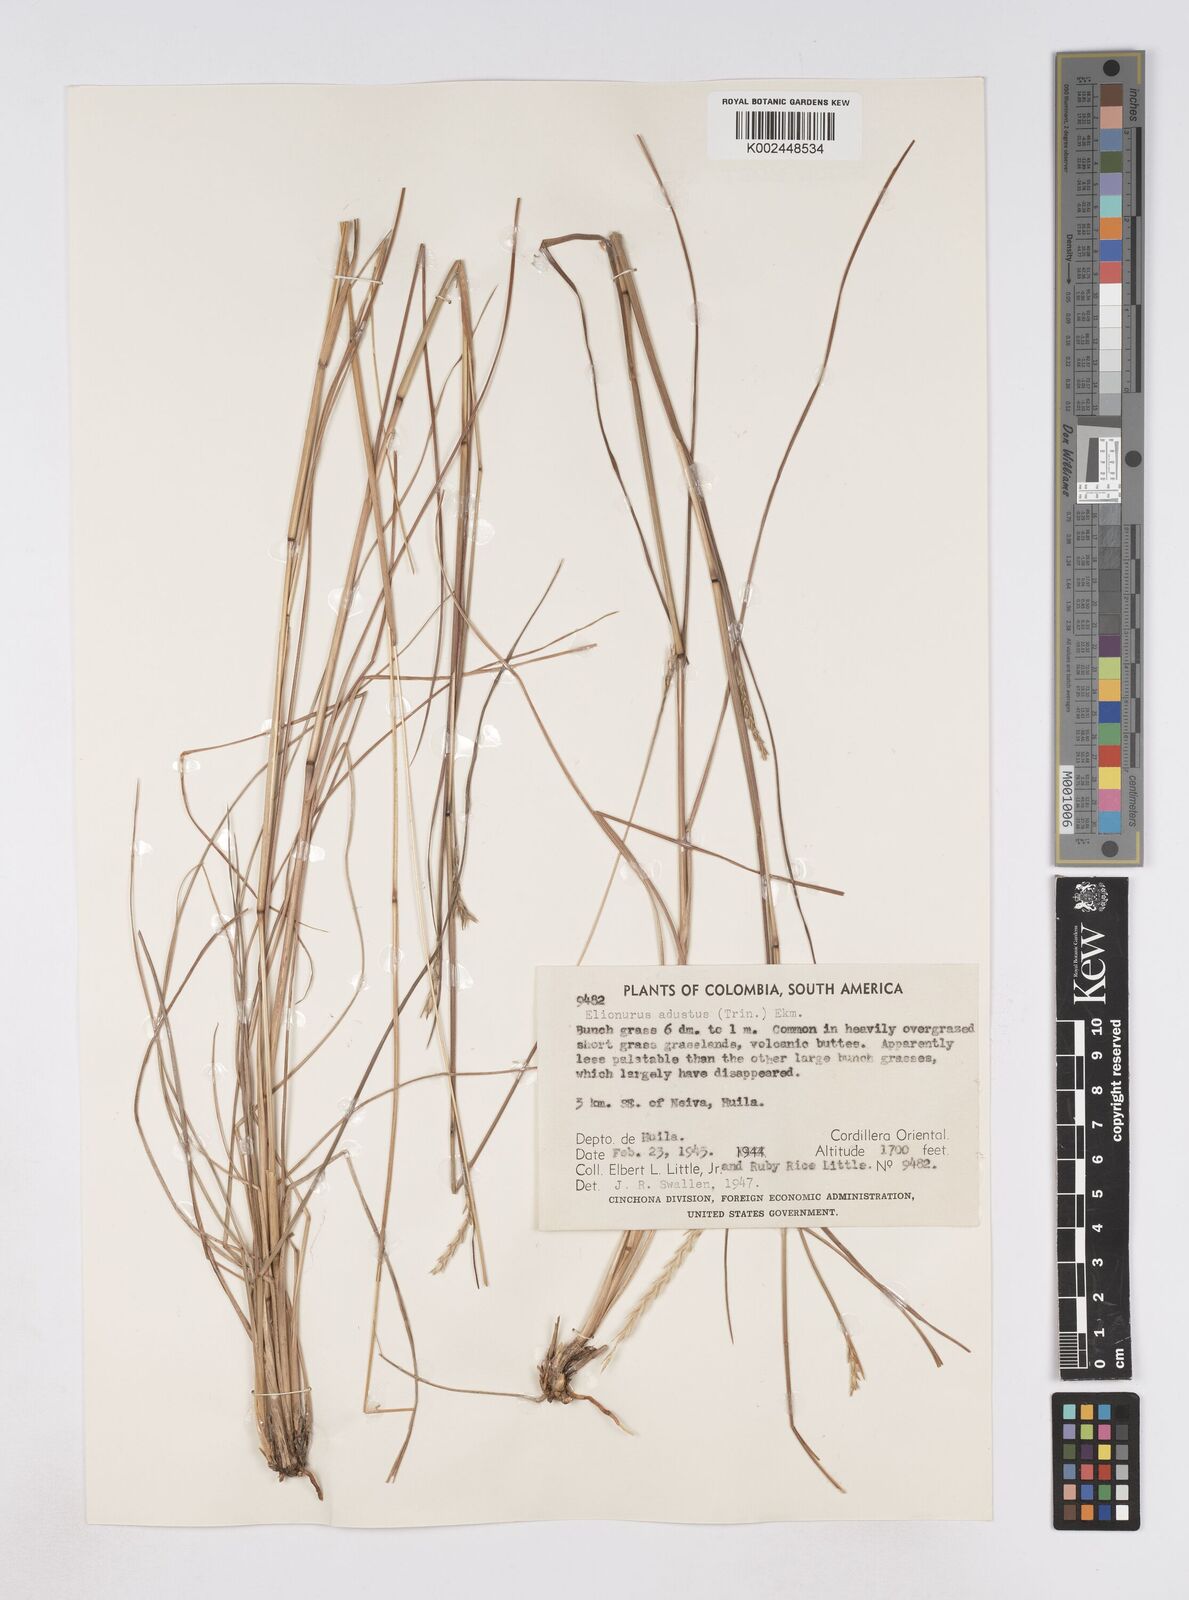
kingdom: Plantae
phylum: Tracheophyta
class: Liliopsida
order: Poales
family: Poaceae
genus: Elionurus
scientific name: Elionurus muticus
